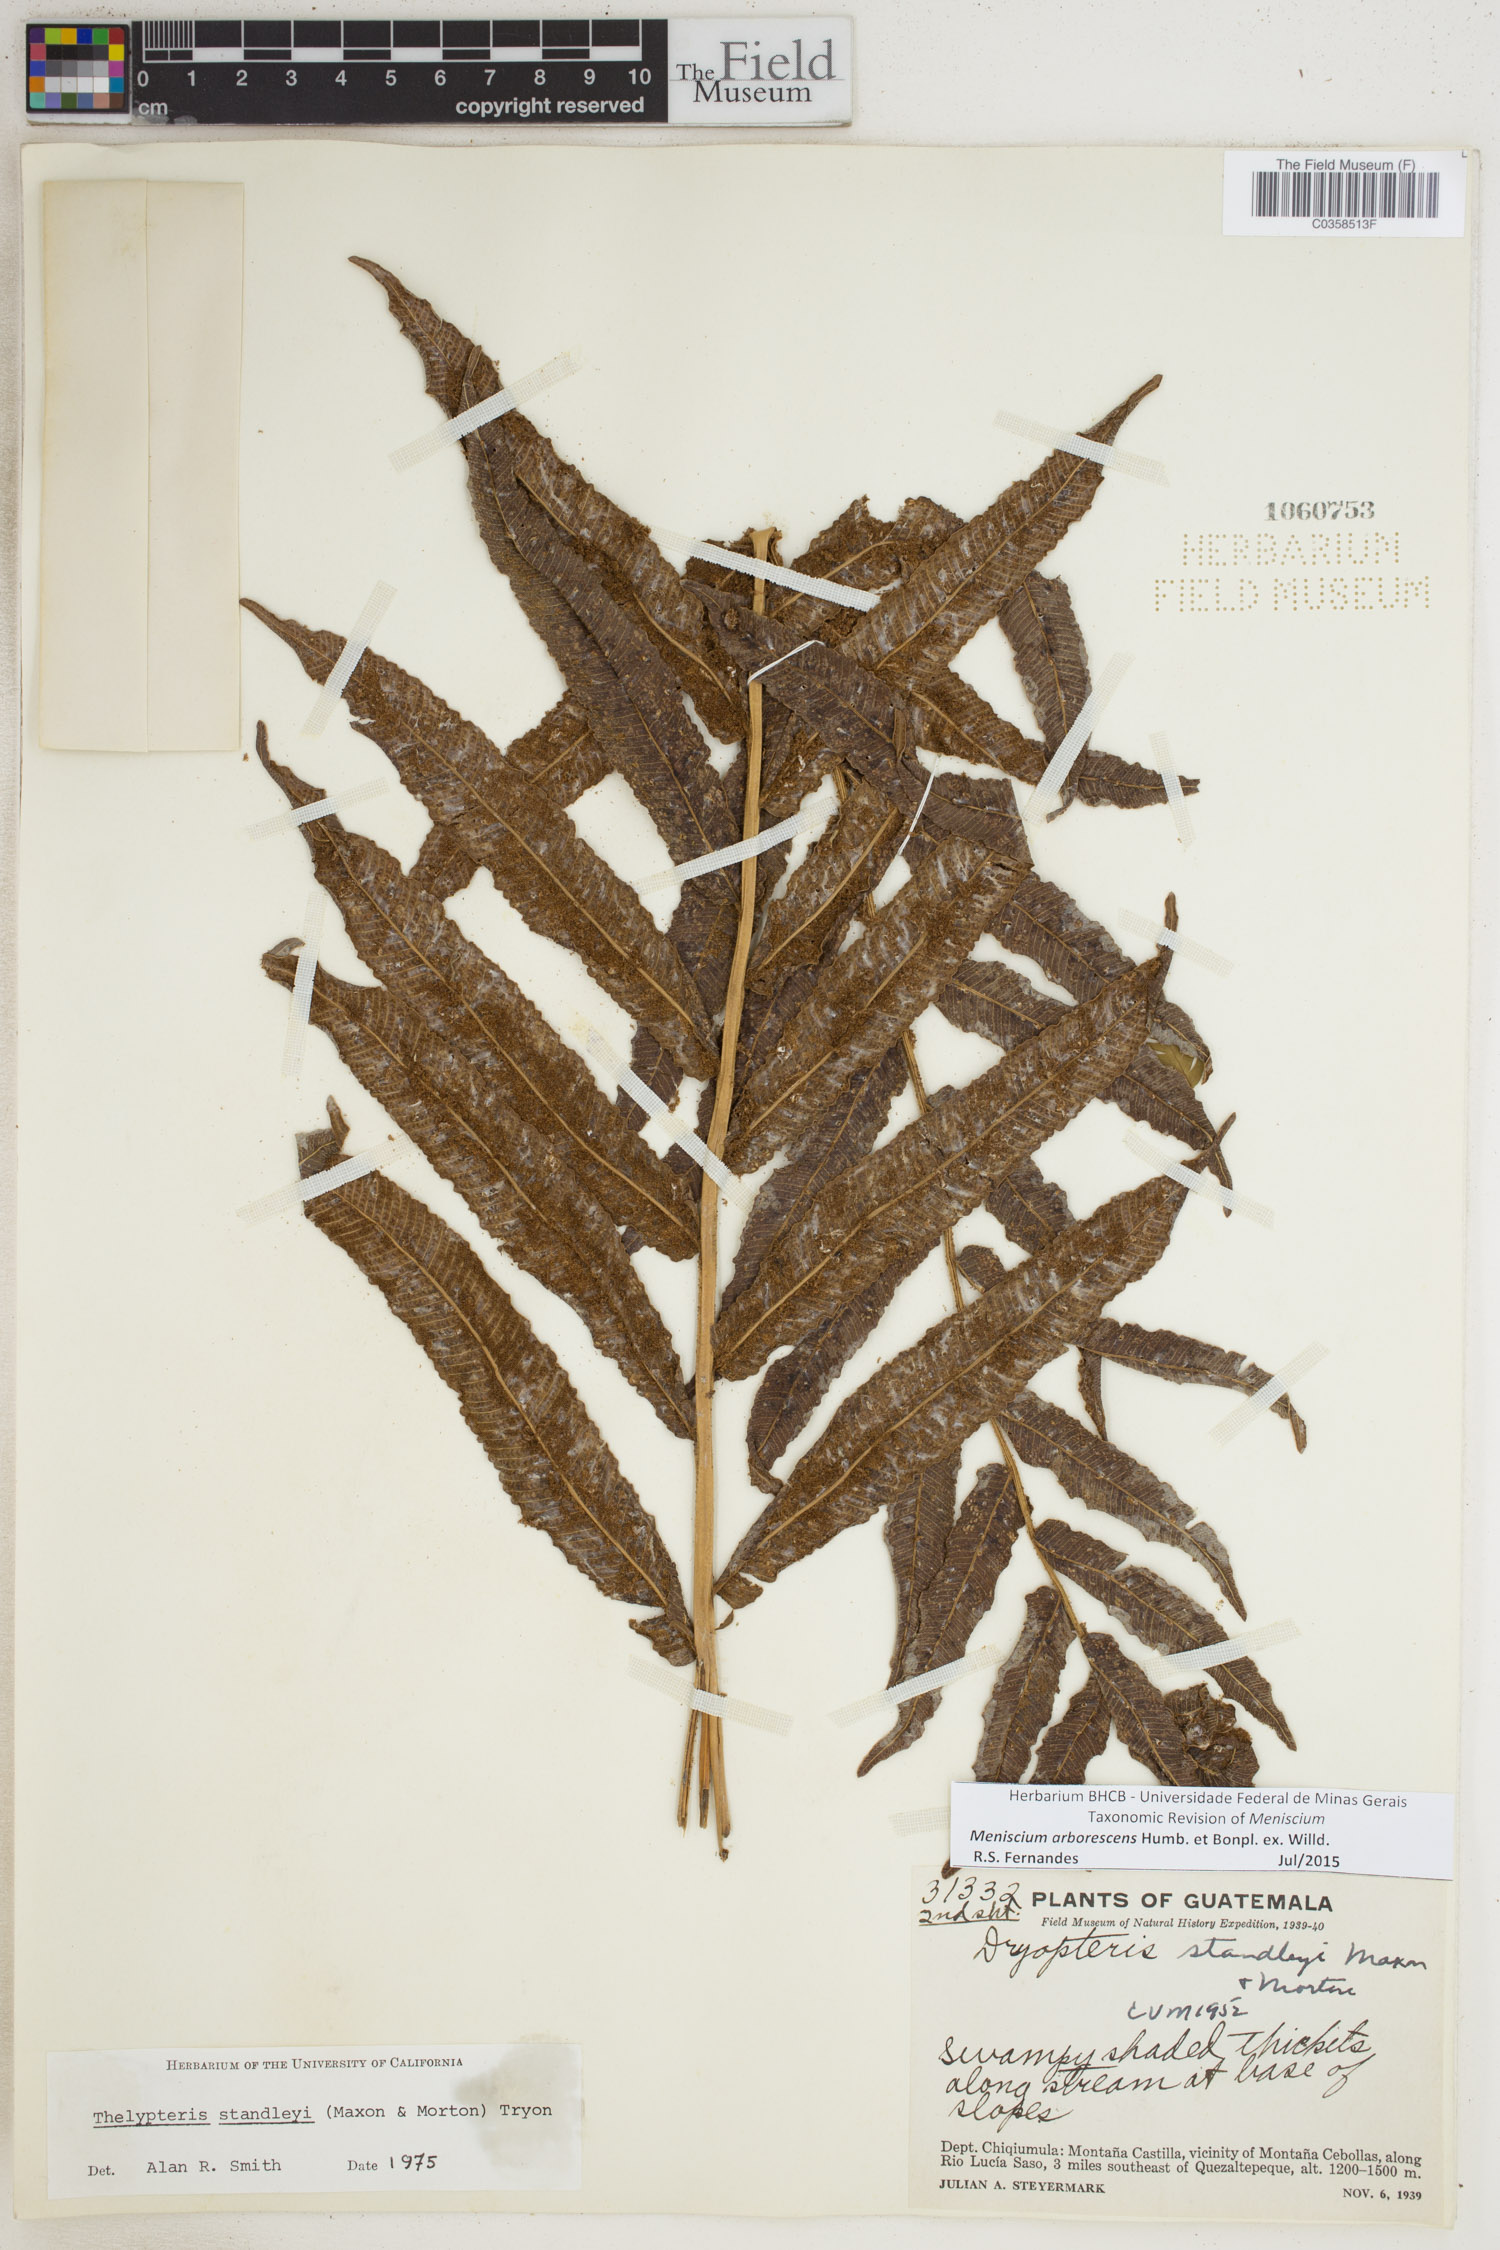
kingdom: Plantae
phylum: Tracheophyta
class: Polypodiopsida
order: Polypodiales
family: Thelypteridaceae
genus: Meniscium
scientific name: Meniscium arborescens
